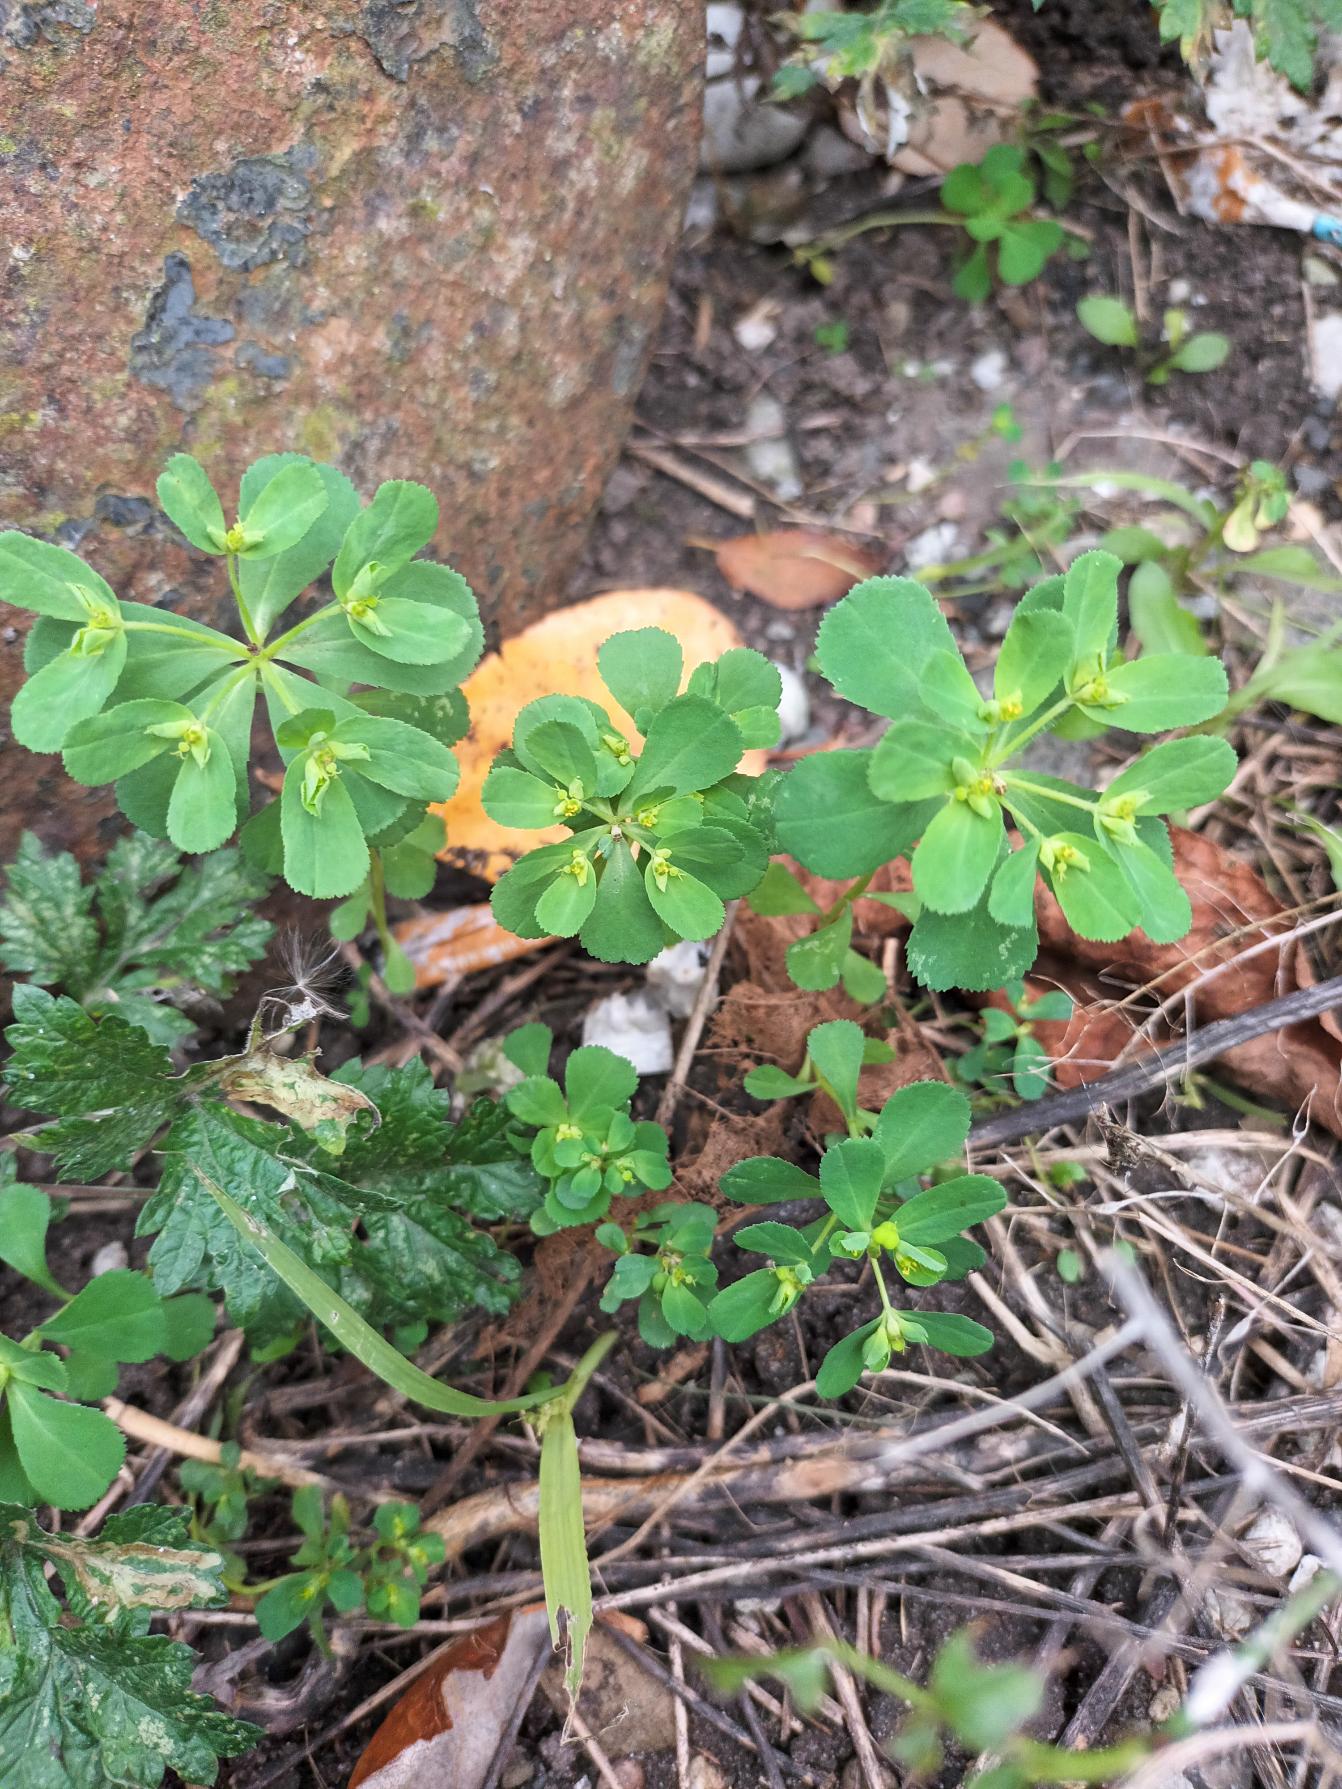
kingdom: Plantae
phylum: Tracheophyta
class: Magnoliopsida
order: Malpighiales
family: Euphorbiaceae
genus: Euphorbia
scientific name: Euphorbia helioscopia
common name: Skærm-vortemælk
